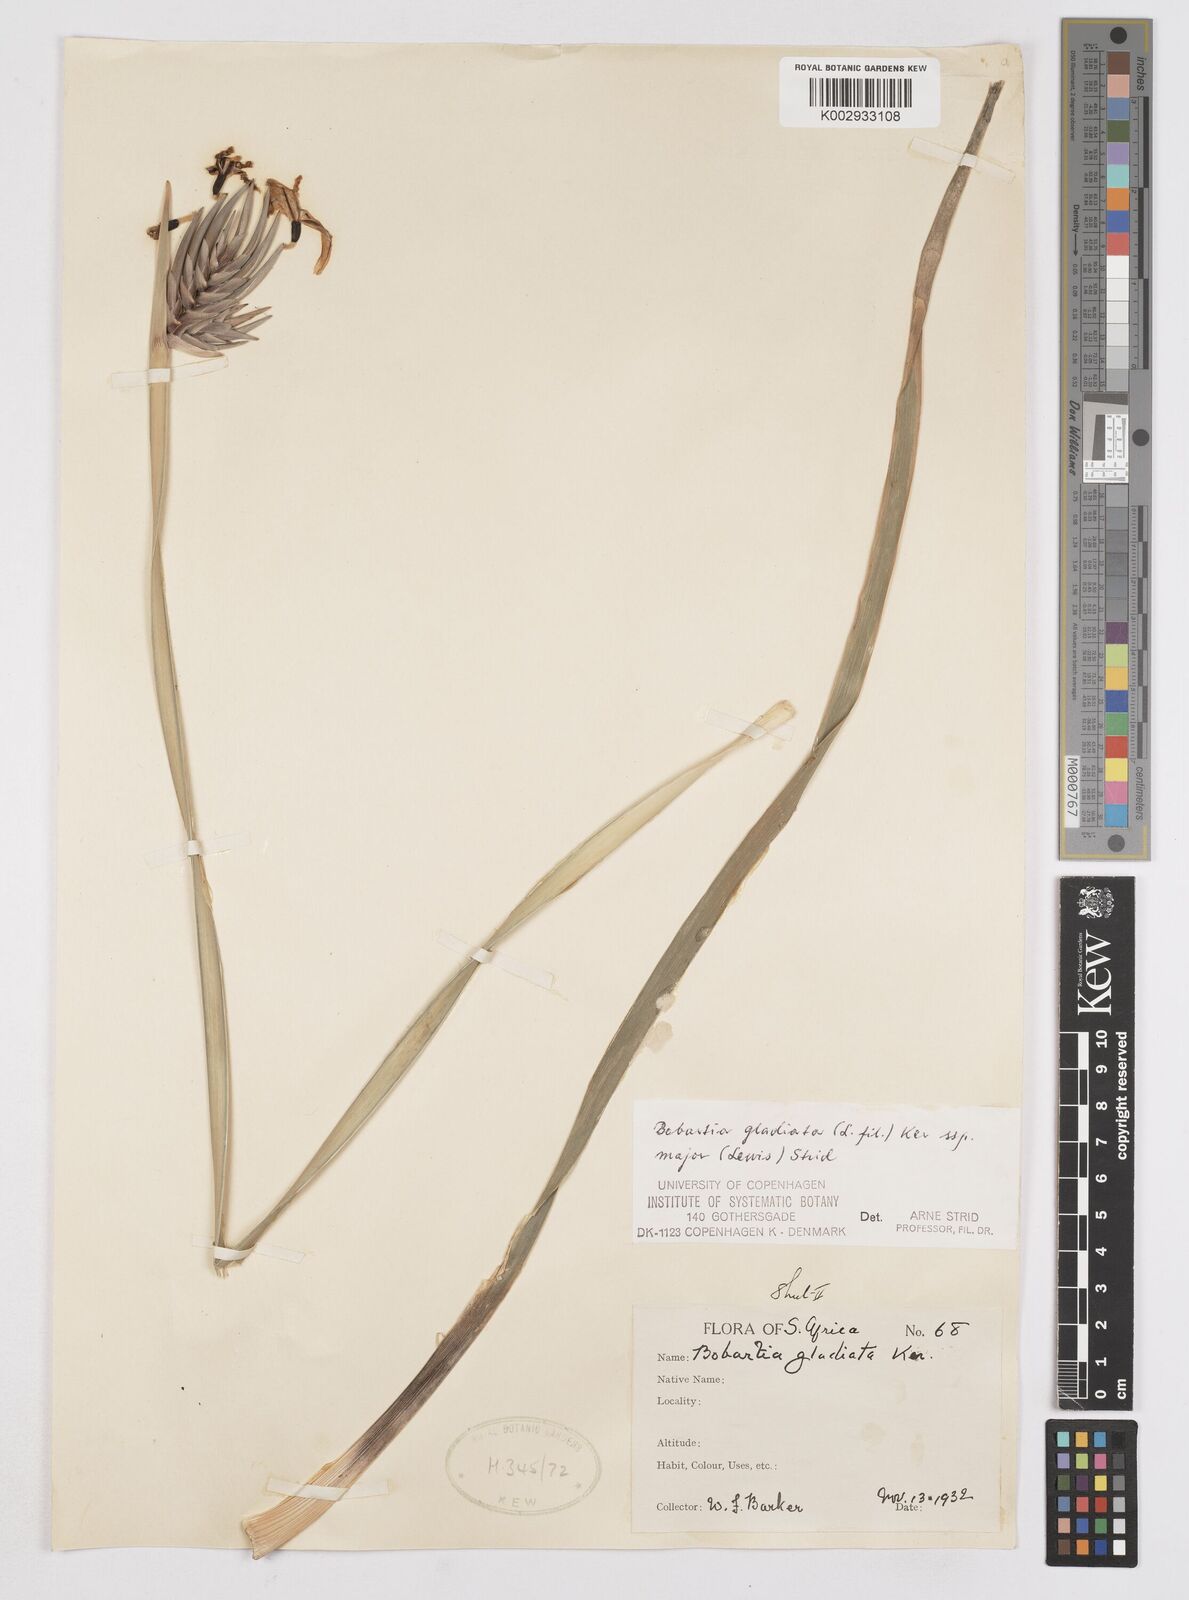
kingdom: Plantae
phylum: Tracheophyta
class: Liliopsida
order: Asparagales
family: Iridaceae
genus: Bobartia
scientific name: Bobartia gladiata
